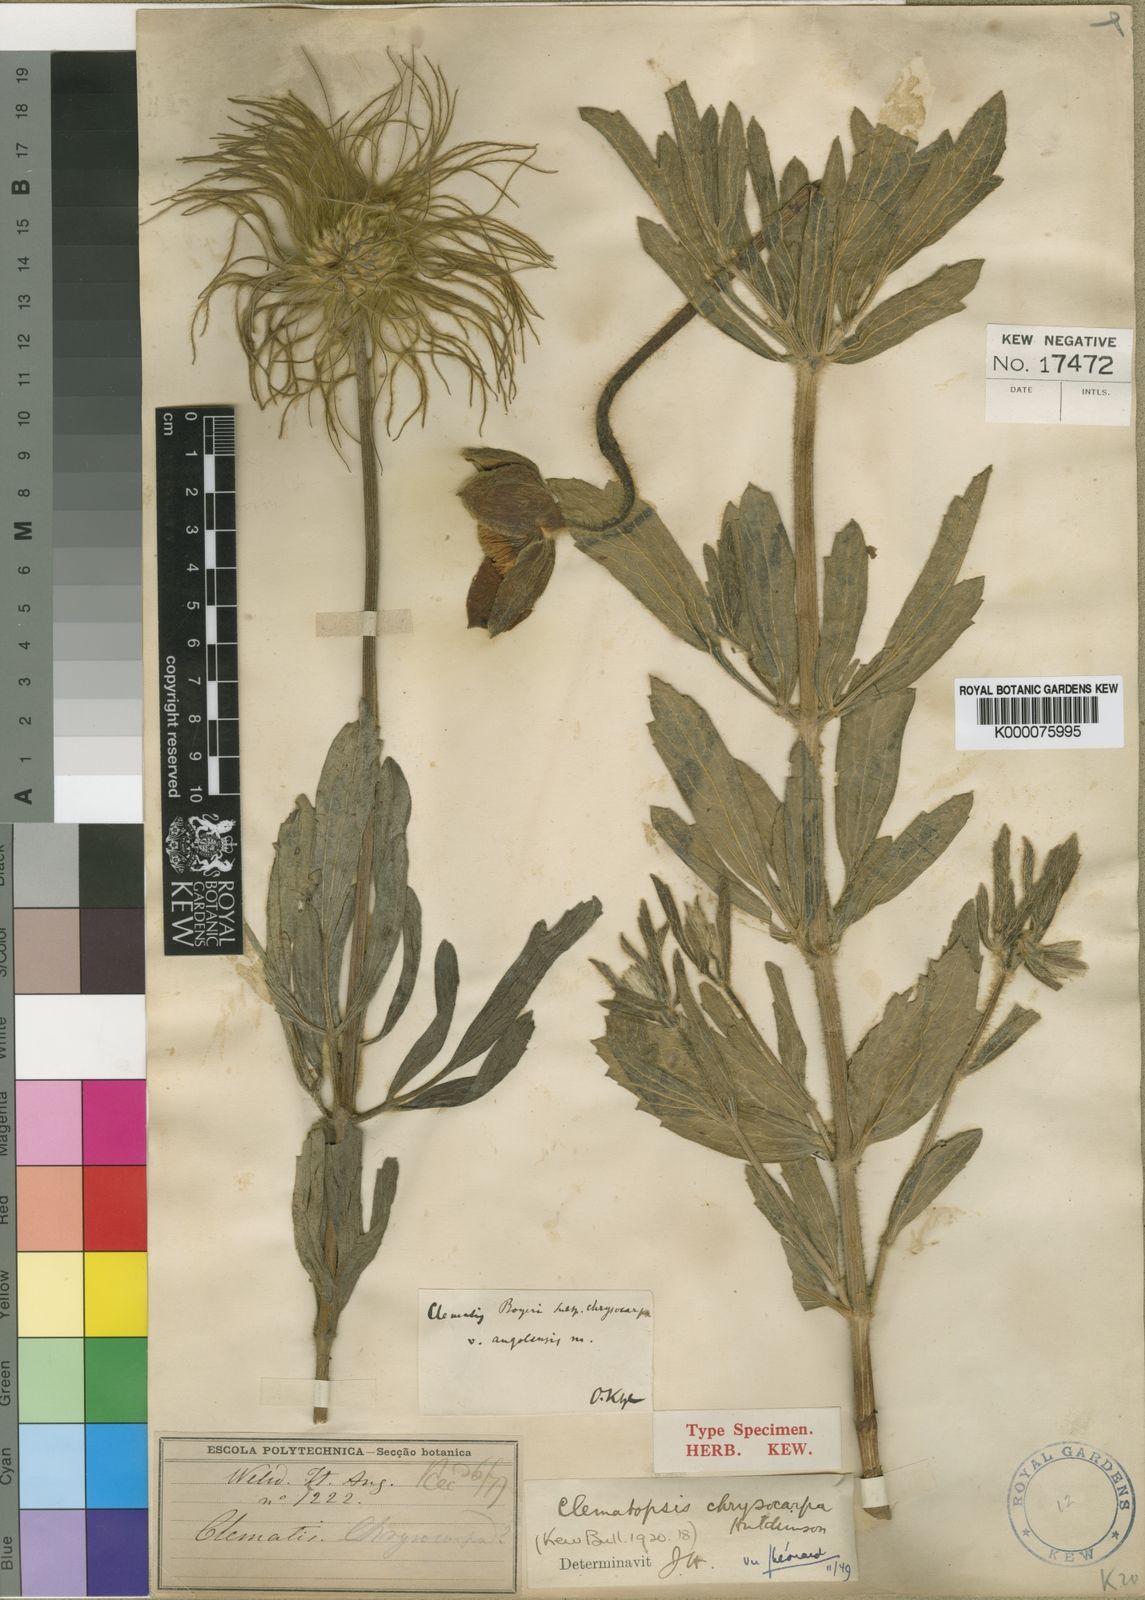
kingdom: Plantae
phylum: Tracheophyta
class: Magnoliopsida
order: Ranunculales
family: Ranunculaceae
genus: Clematis
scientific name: Clematis villosa
